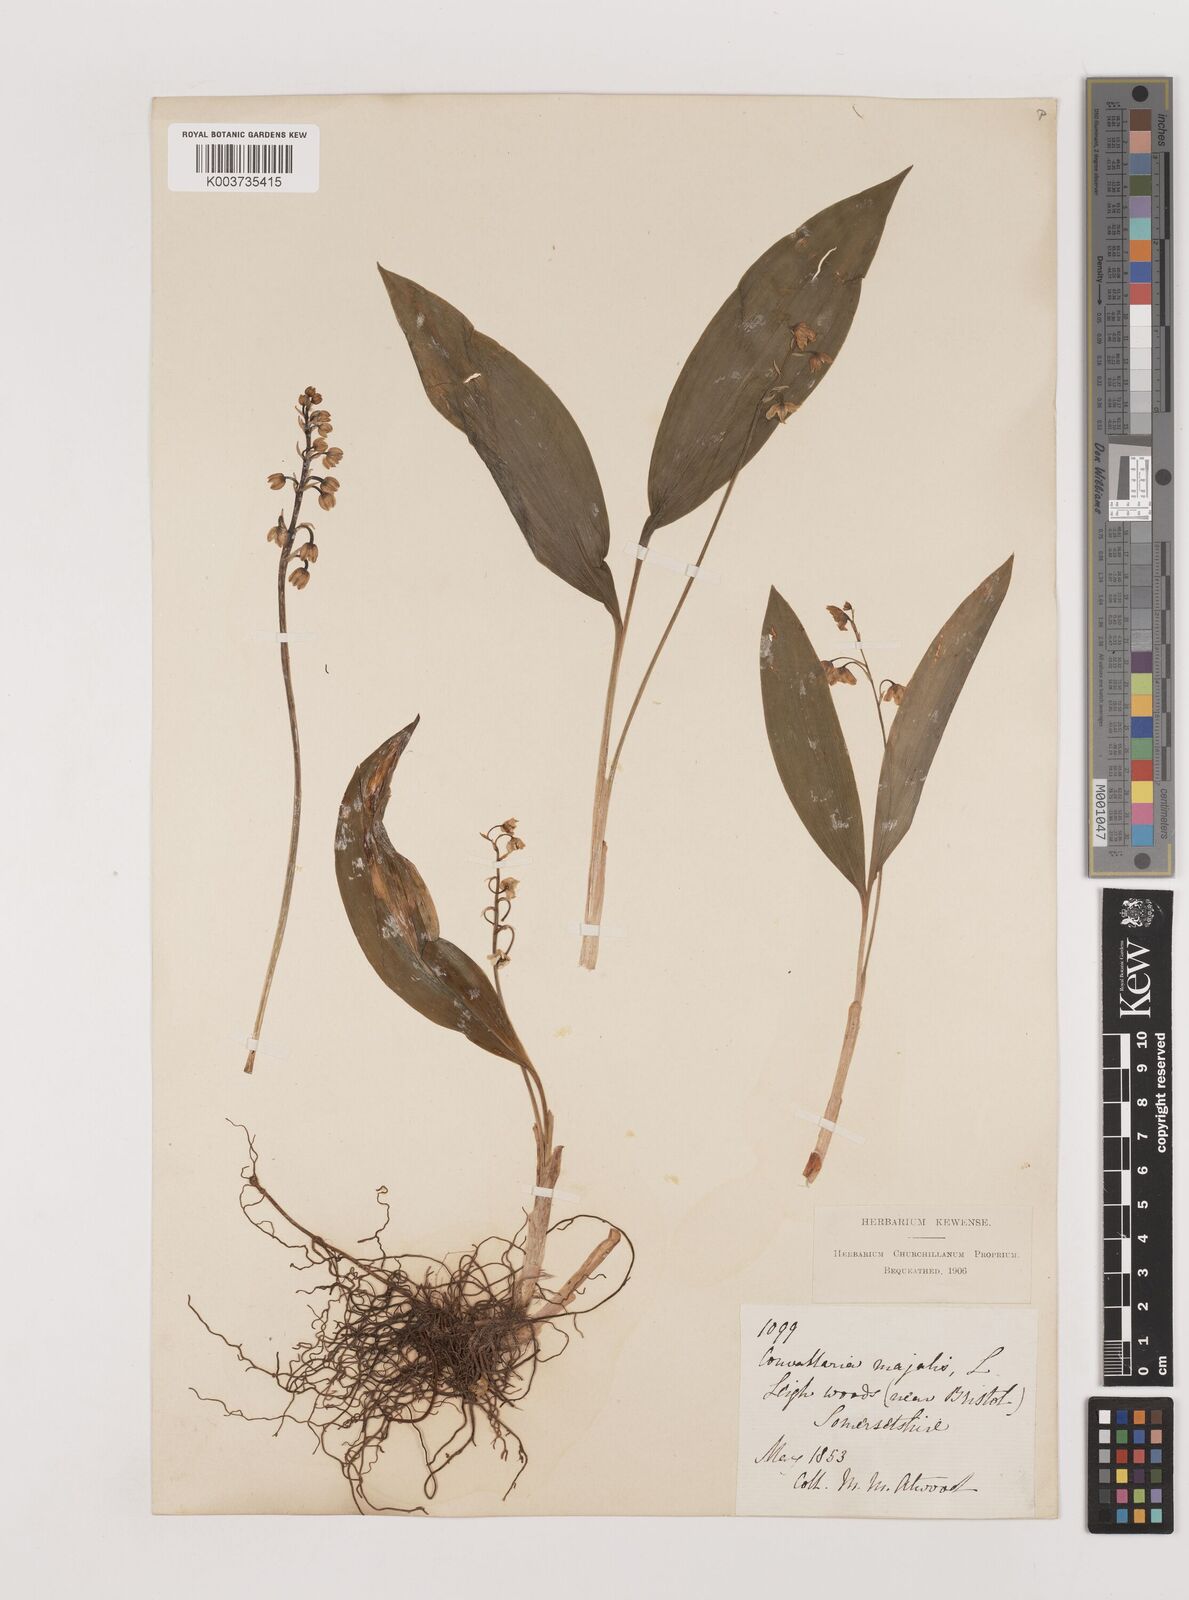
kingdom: Plantae
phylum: Tracheophyta
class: Liliopsida
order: Asparagales
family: Asparagaceae
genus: Convallaria
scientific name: Convallaria majalis
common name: Lily-of-the-valley
